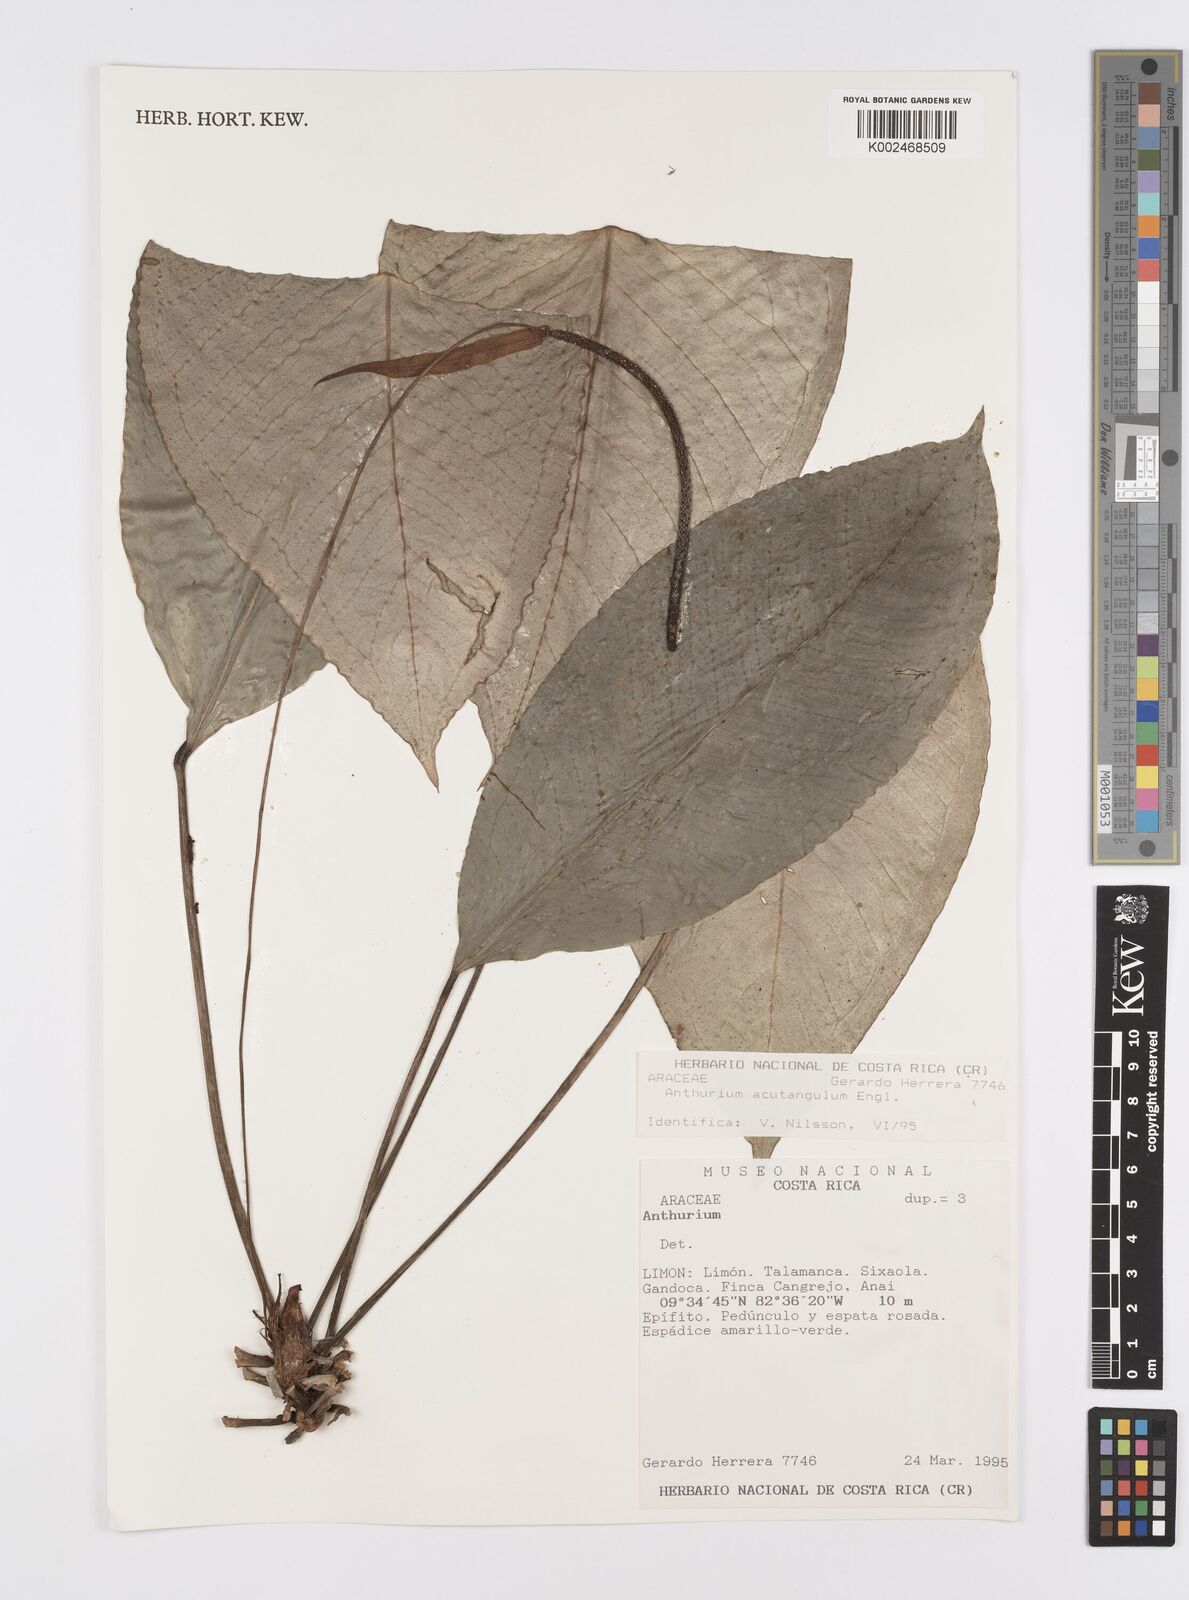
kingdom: Plantae
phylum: Tracheophyta
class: Liliopsida
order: Alismatales
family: Araceae
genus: Anthurium
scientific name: Anthurium acutangulum
